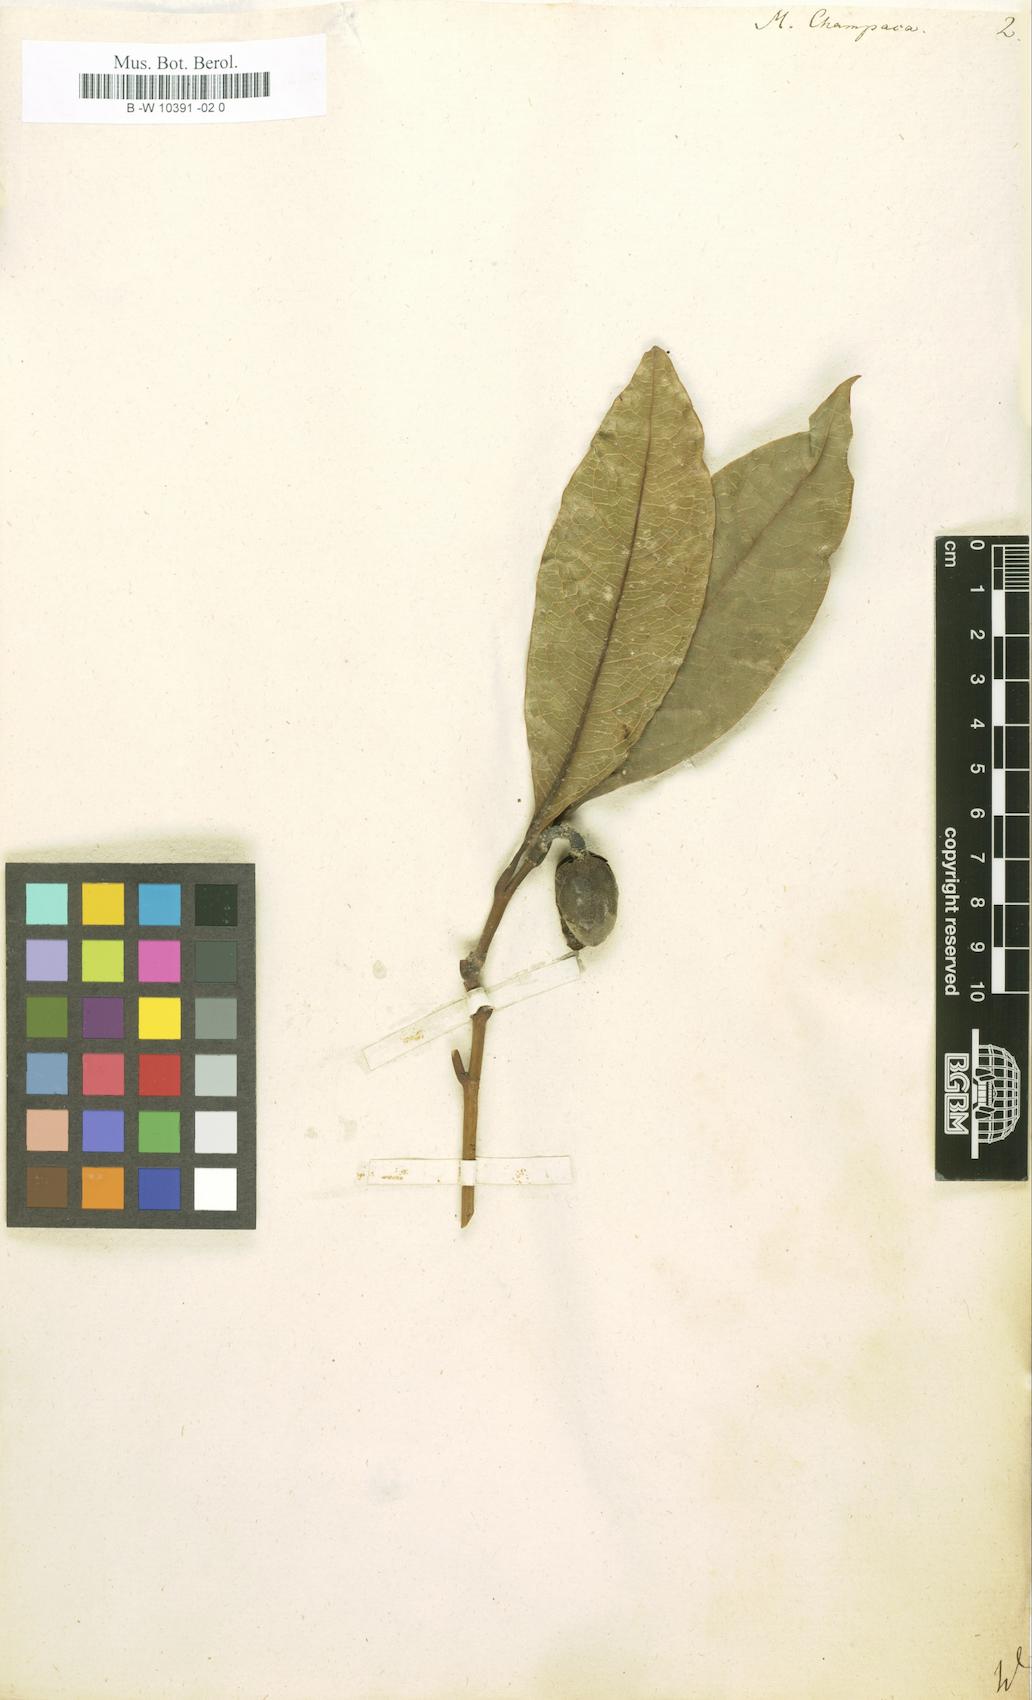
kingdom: Plantae
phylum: Tracheophyta
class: Magnoliopsida
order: Magnoliales
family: Magnoliaceae
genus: Magnolia
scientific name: Magnolia champaca
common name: Champak
